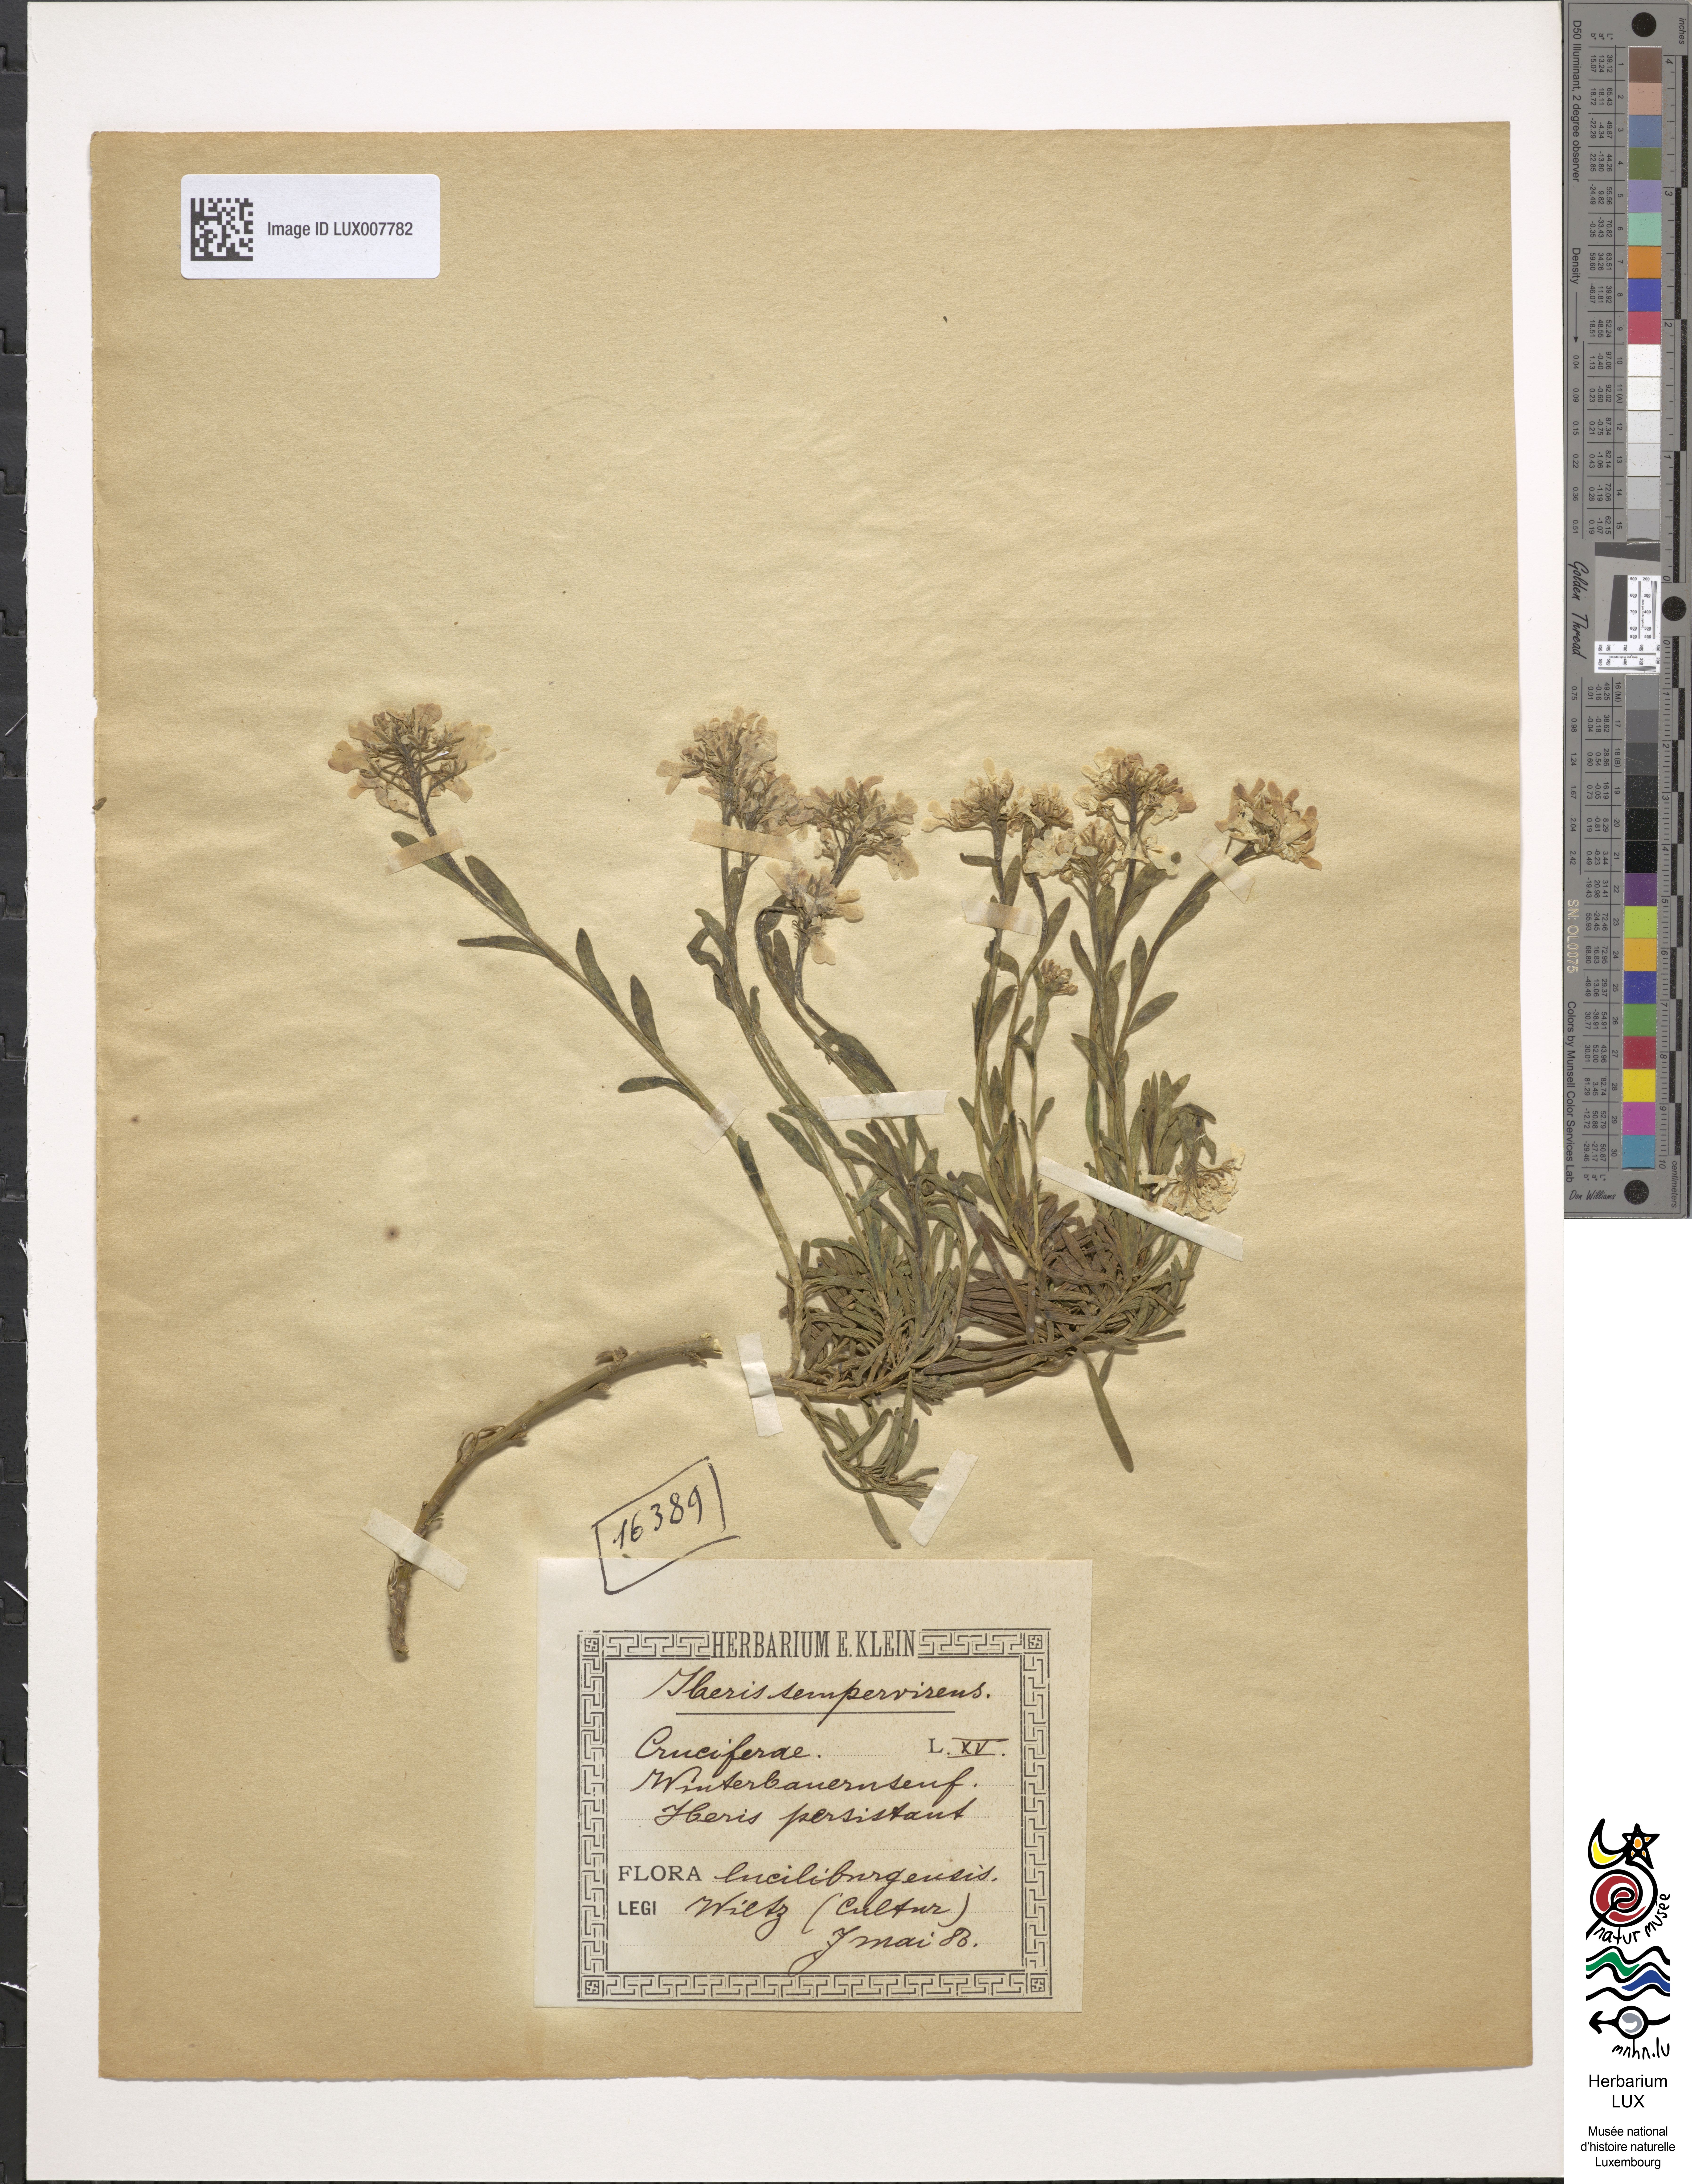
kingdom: Plantae
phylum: Tracheophyta
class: Magnoliopsida
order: Brassicales
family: Brassicaceae
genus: Iberis
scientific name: Iberis sempervirens
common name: Evergreen candytuft
